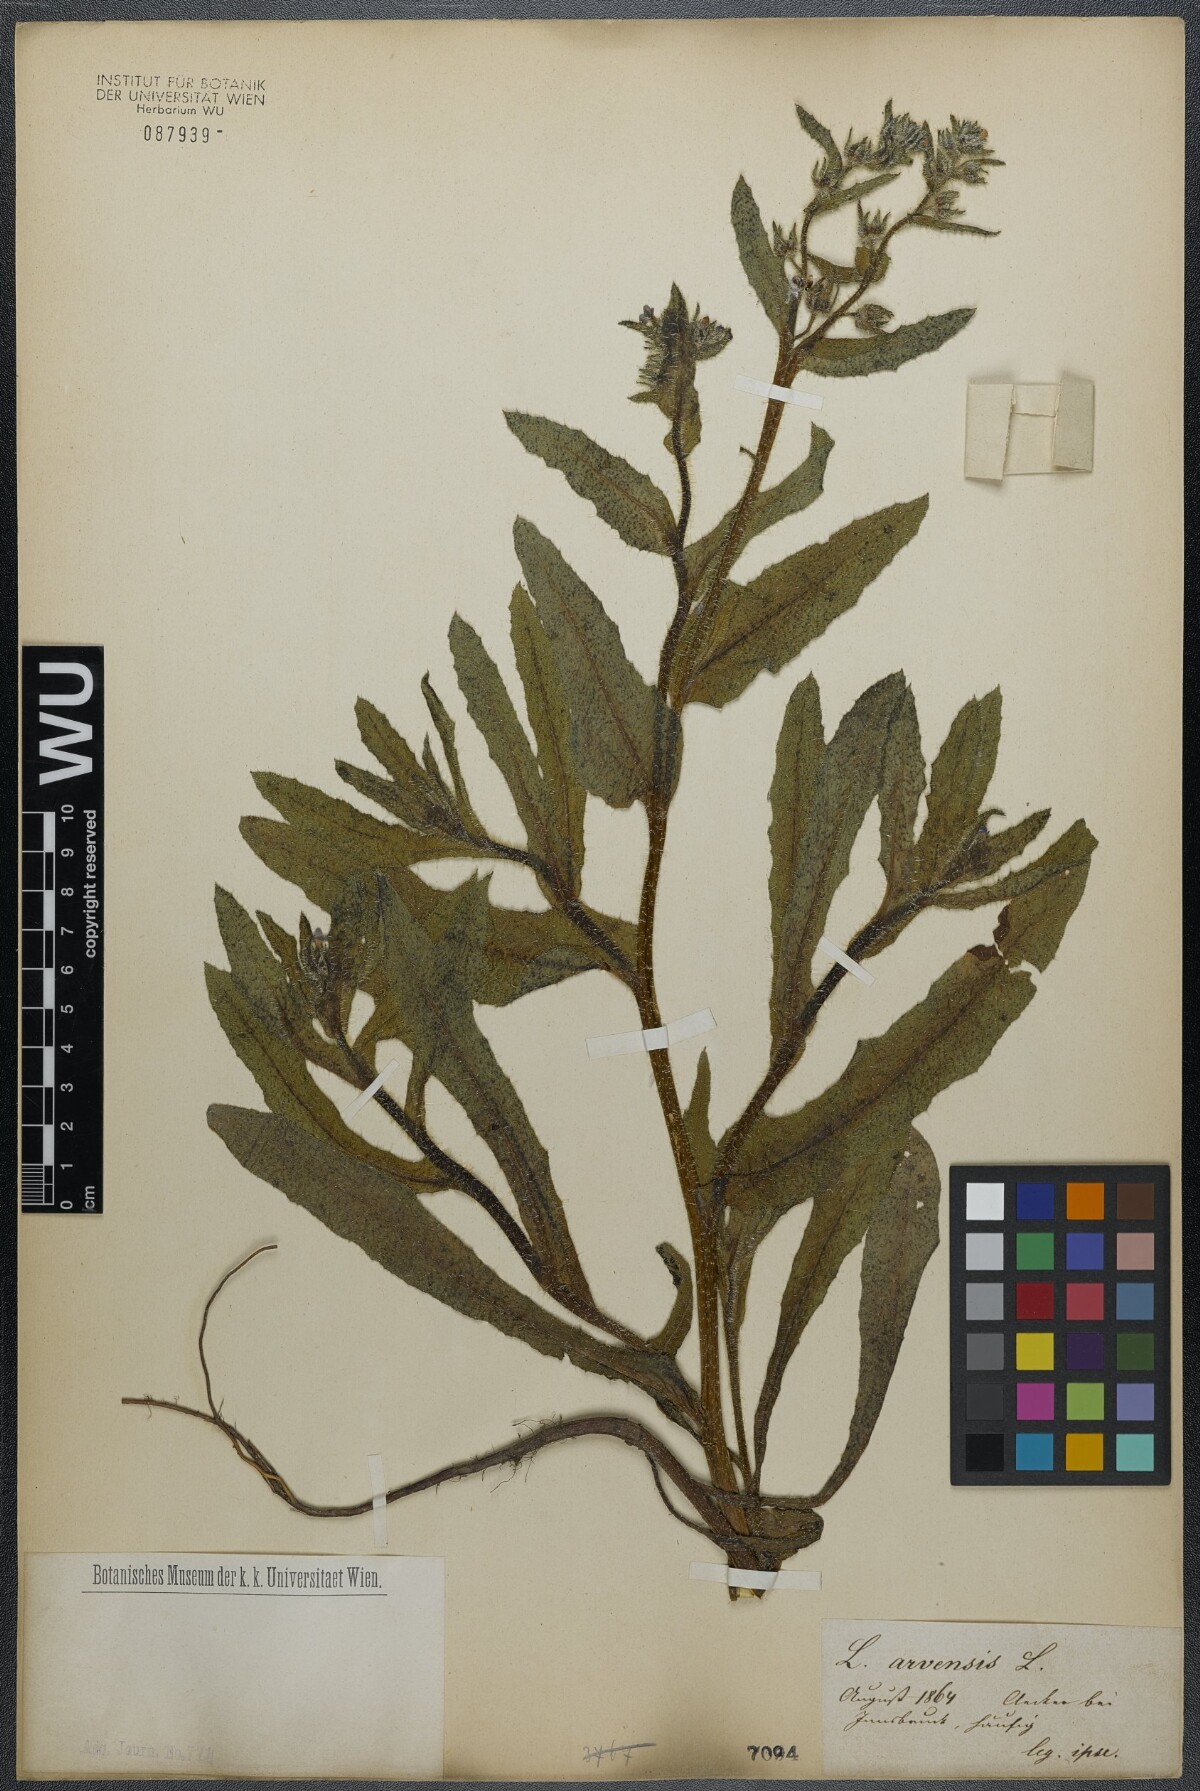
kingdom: Plantae
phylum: Tracheophyta
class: Magnoliopsida
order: Boraginales
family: Boraginaceae
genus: Lycopsis
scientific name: Lycopsis arvensis
